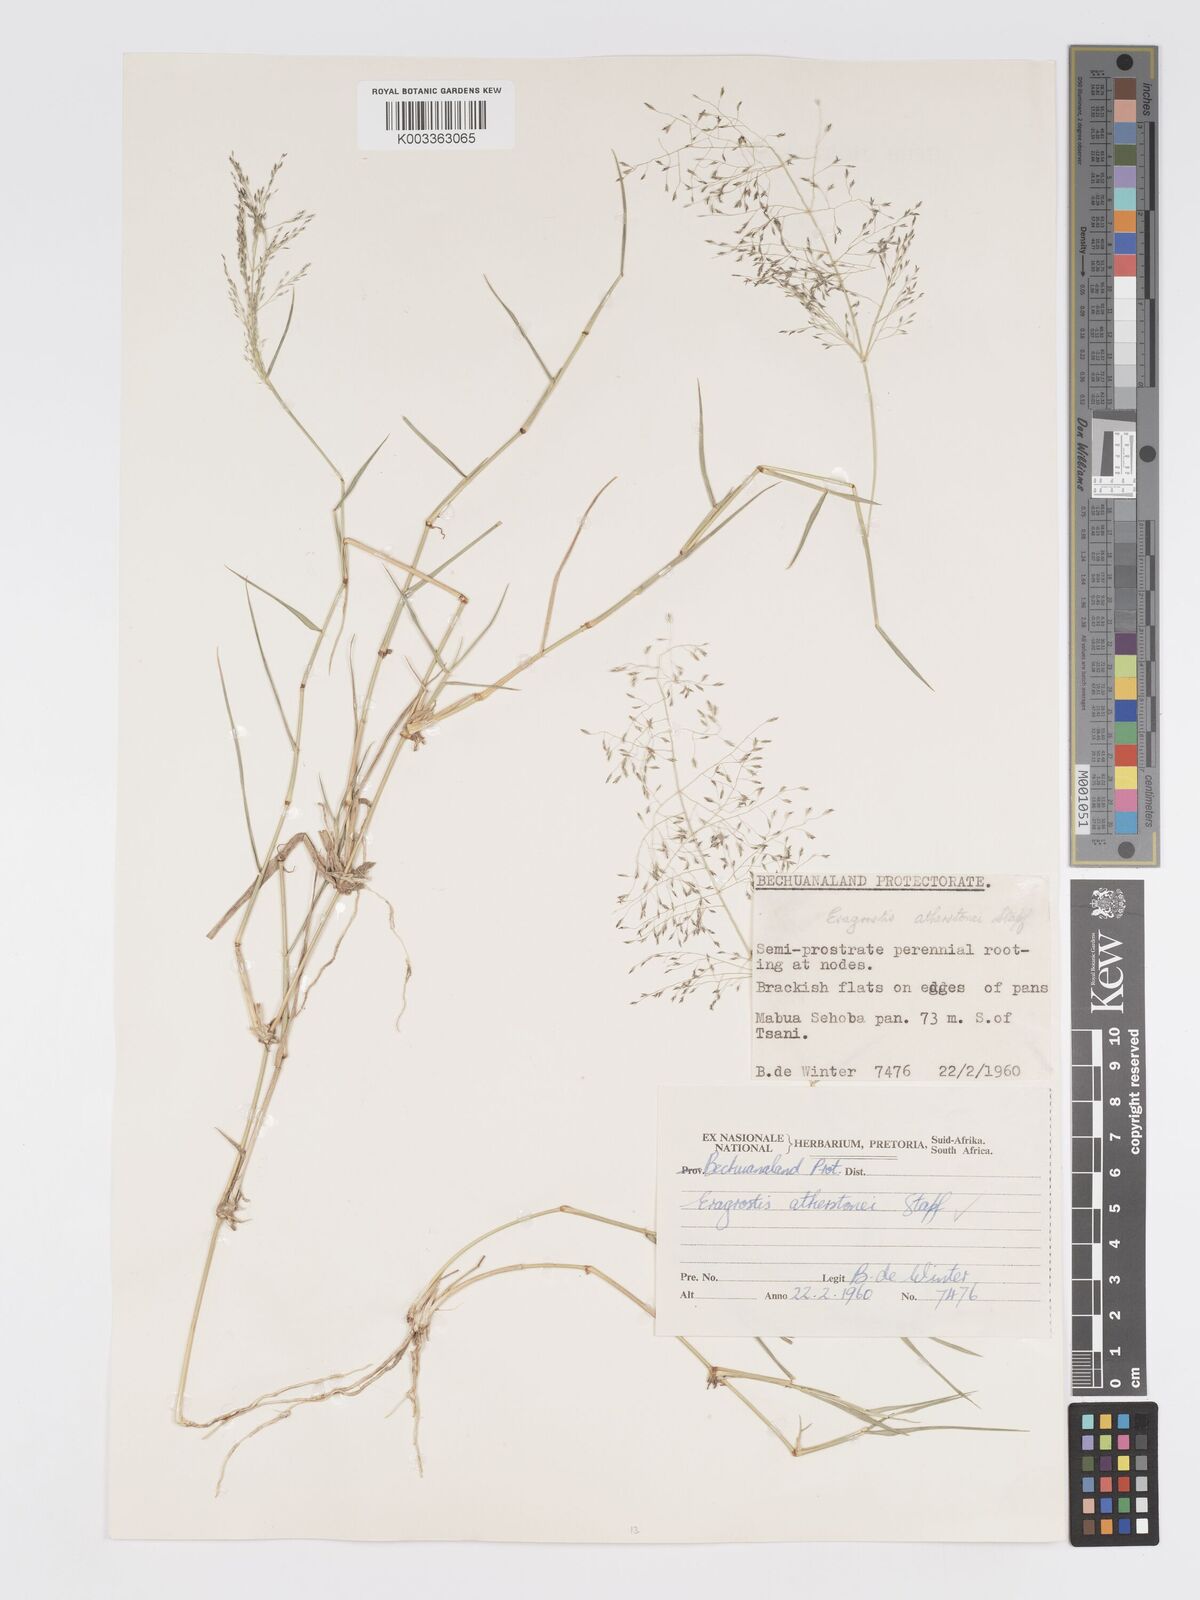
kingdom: Plantae
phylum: Tracheophyta
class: Liliopsida
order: Poales
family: Poaceae
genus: Eragrostis
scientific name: Eragrostis cylindriflora
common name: Cylinderflower lovegrass
